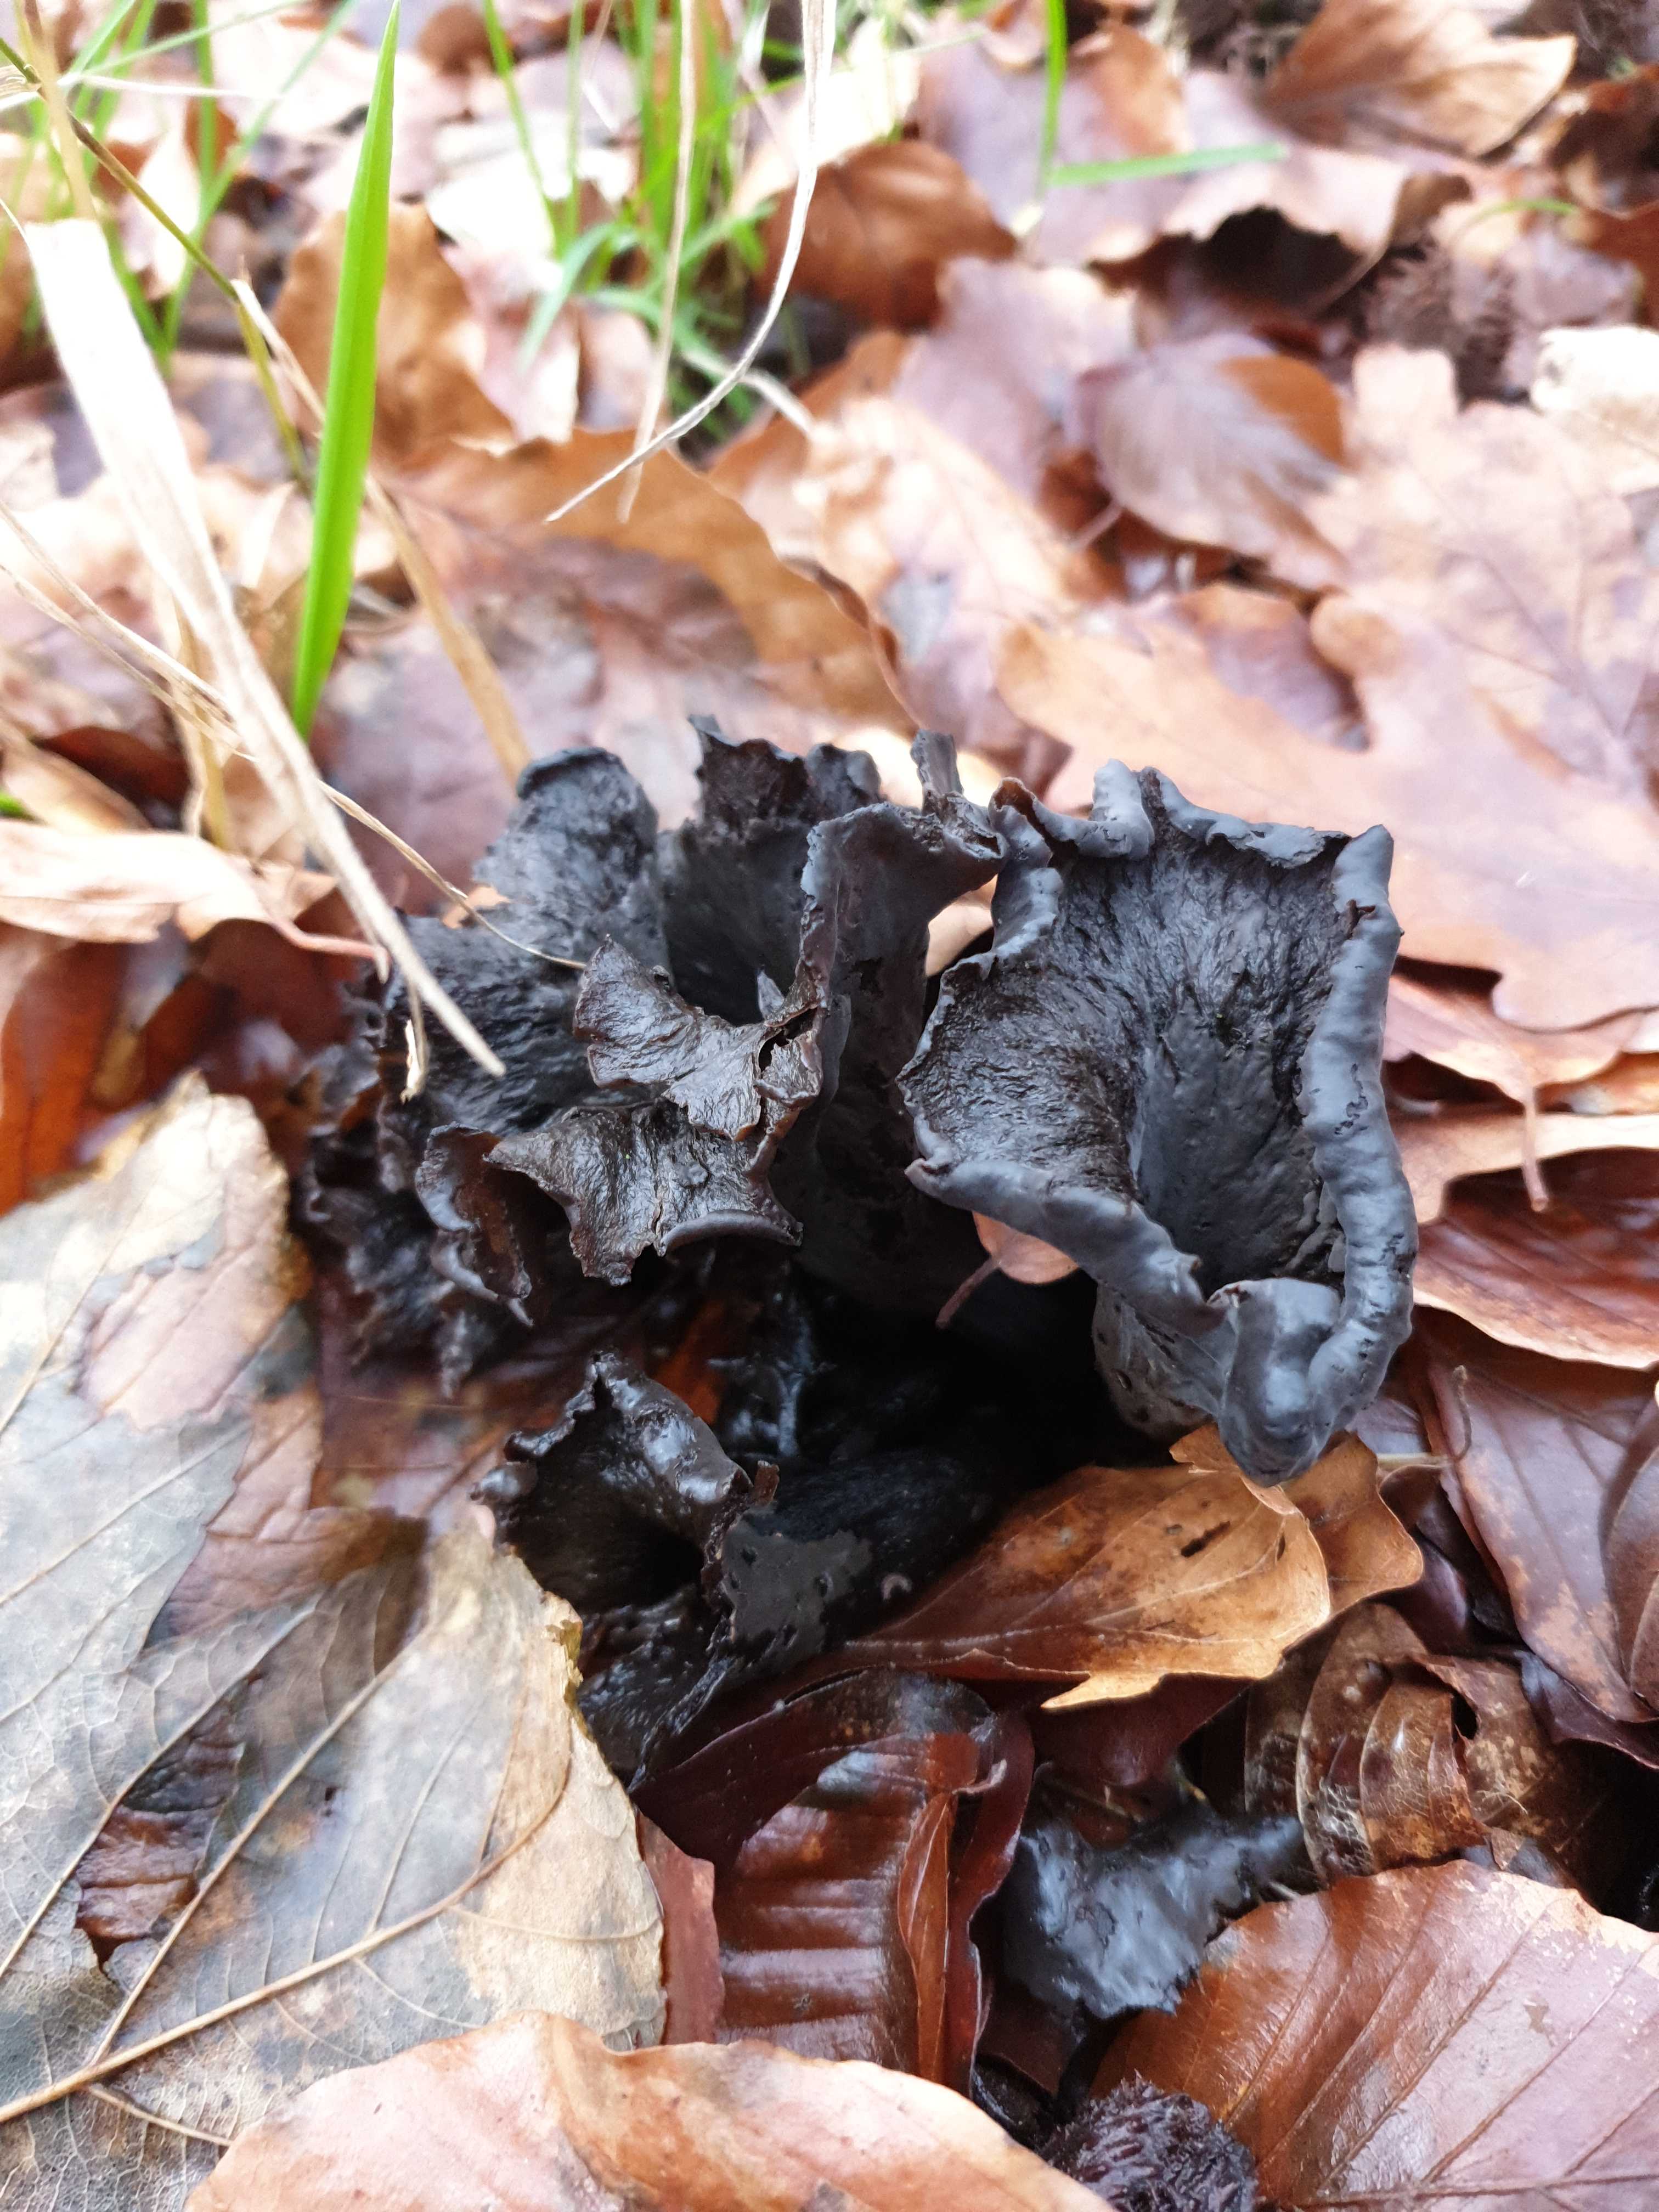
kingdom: Fungi
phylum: Basidiomycota
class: Agaricomycetes
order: Cantharellales
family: Hydnaceae
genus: Craterellus
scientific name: Craterellus cornucopioides
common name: trompetsvamp
